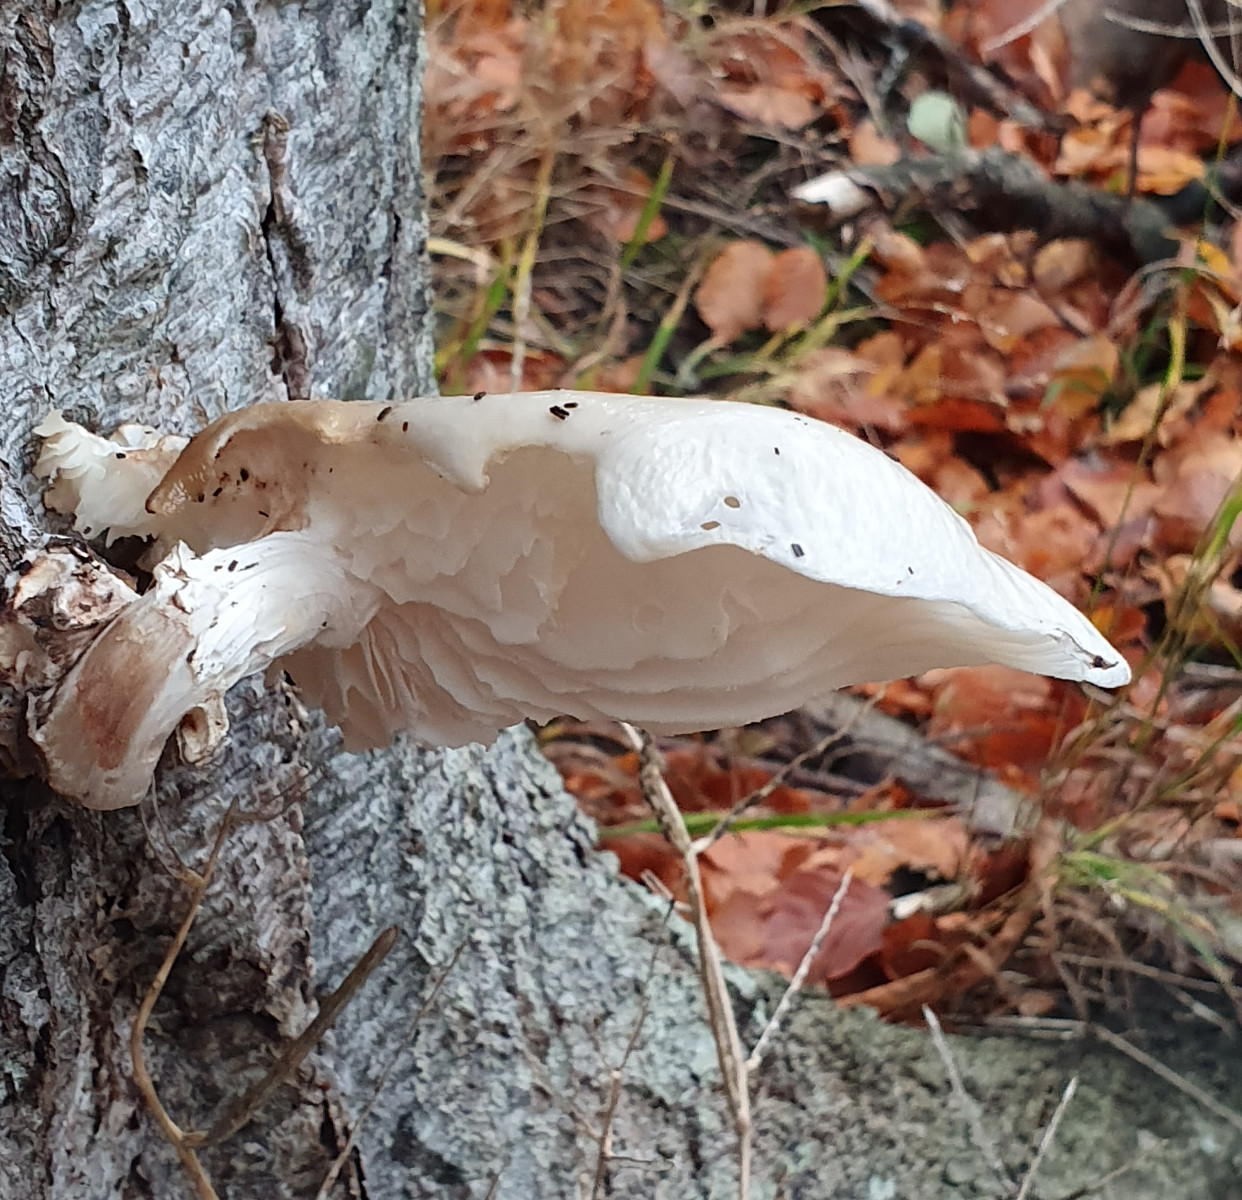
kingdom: Fungi
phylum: Basidiomycota
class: Agaricomycetes
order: Agaricales
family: Physalacriaceae
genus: Mucidula
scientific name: Mucidula mucida
